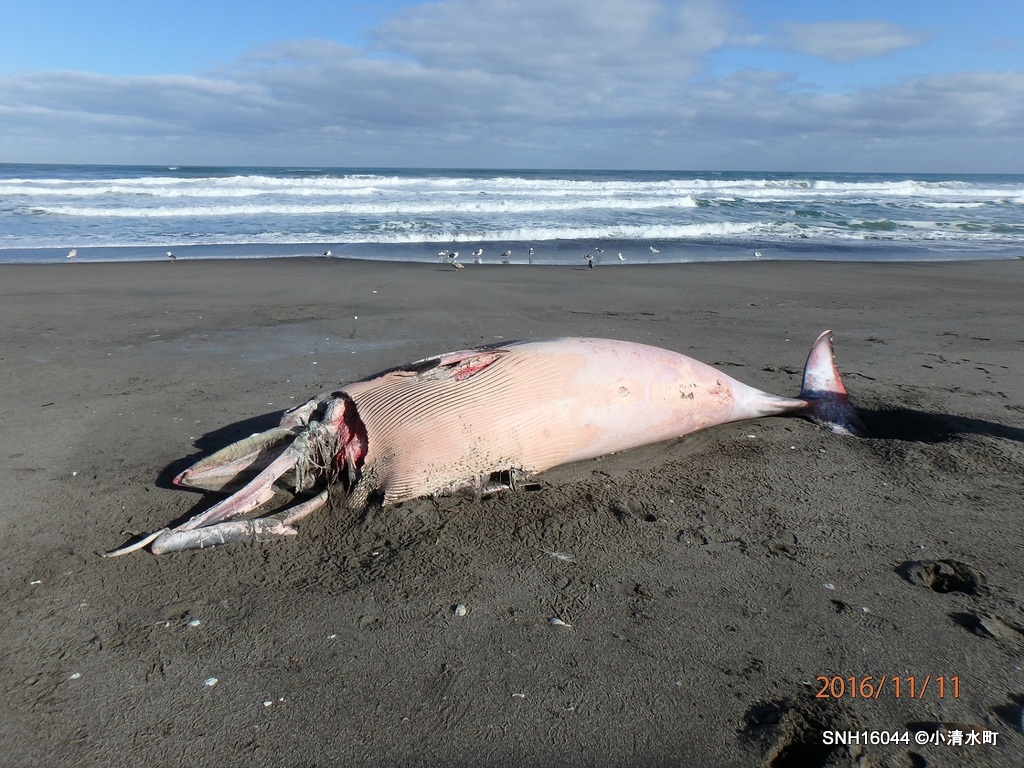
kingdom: Animalia
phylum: Chordata
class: Mammalia
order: Cetacea
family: Balaenopteridae
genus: Balaenoptera
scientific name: Balaenoptera acutorostrata
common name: Minke whale
